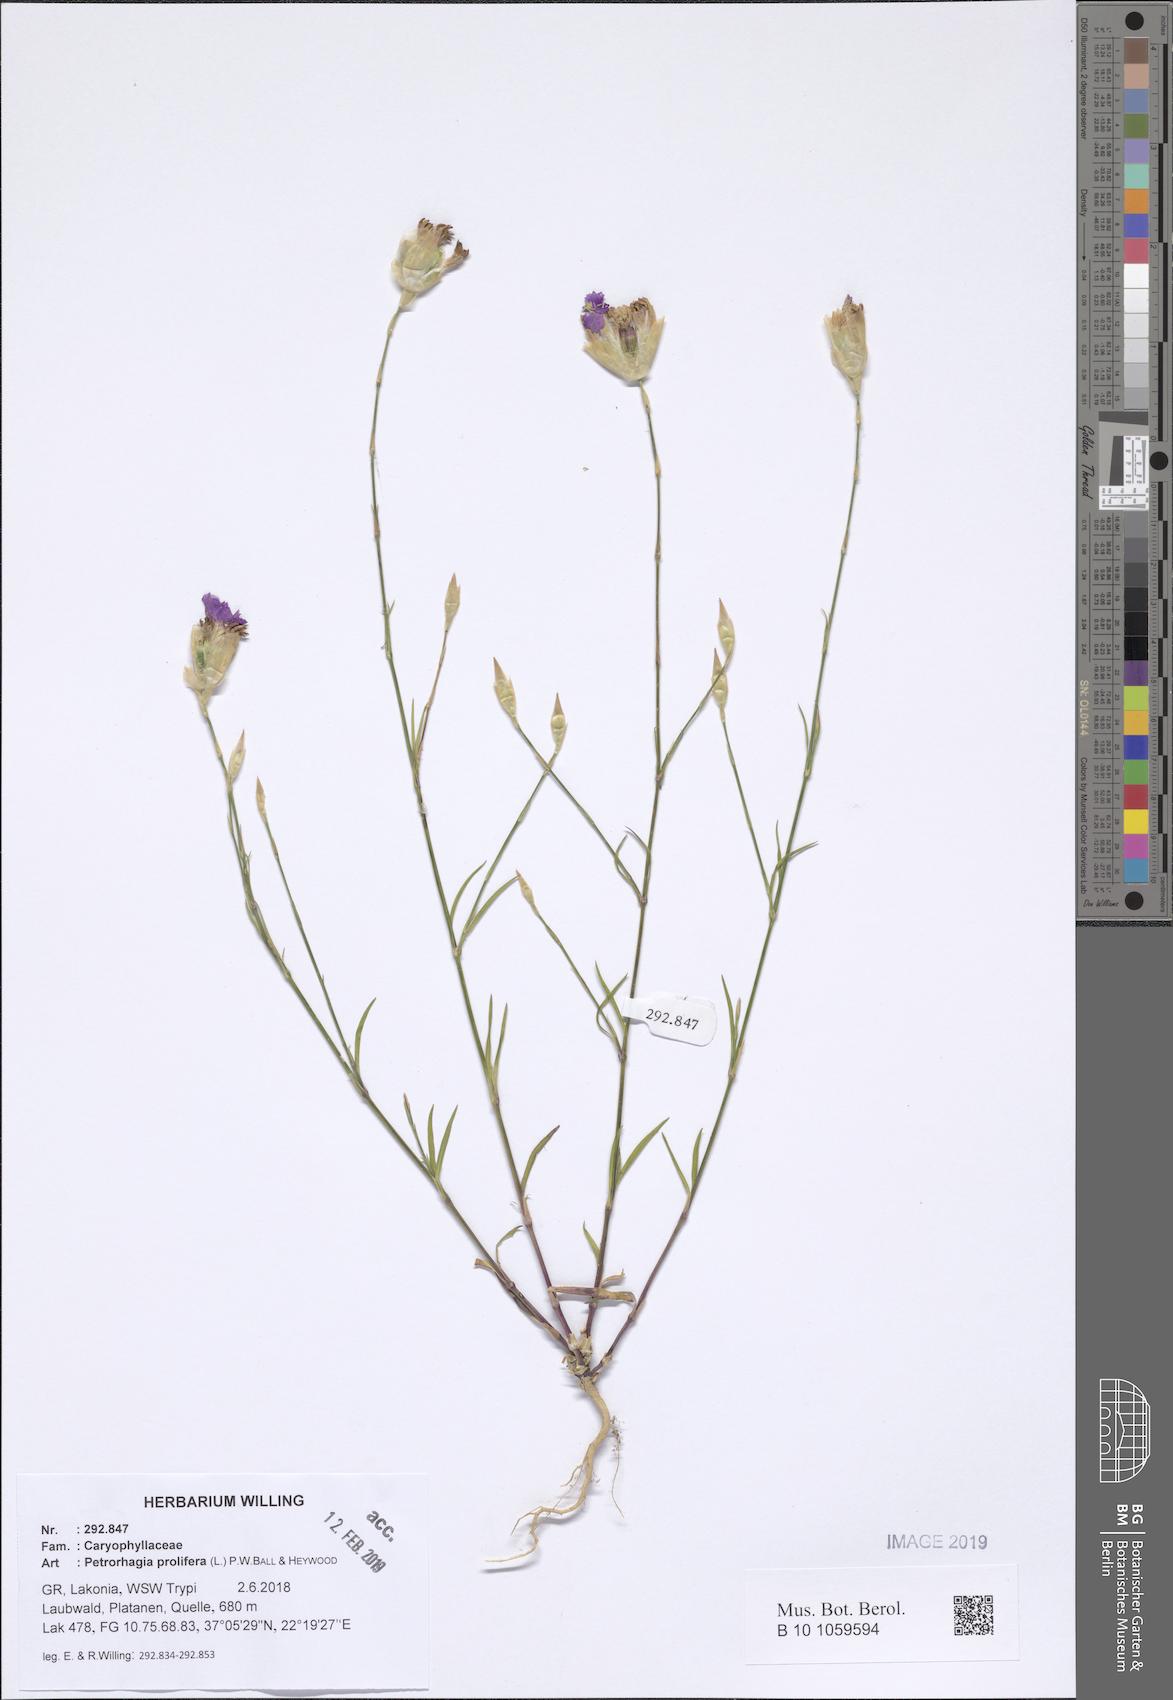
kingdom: Plantae
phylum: Tracheophyta
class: Magnoliopsida
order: Caryophyllales
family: Caryophyllaceae
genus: Petrorhagia
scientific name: Petrorhagia prolifera
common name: Proliferous pink
